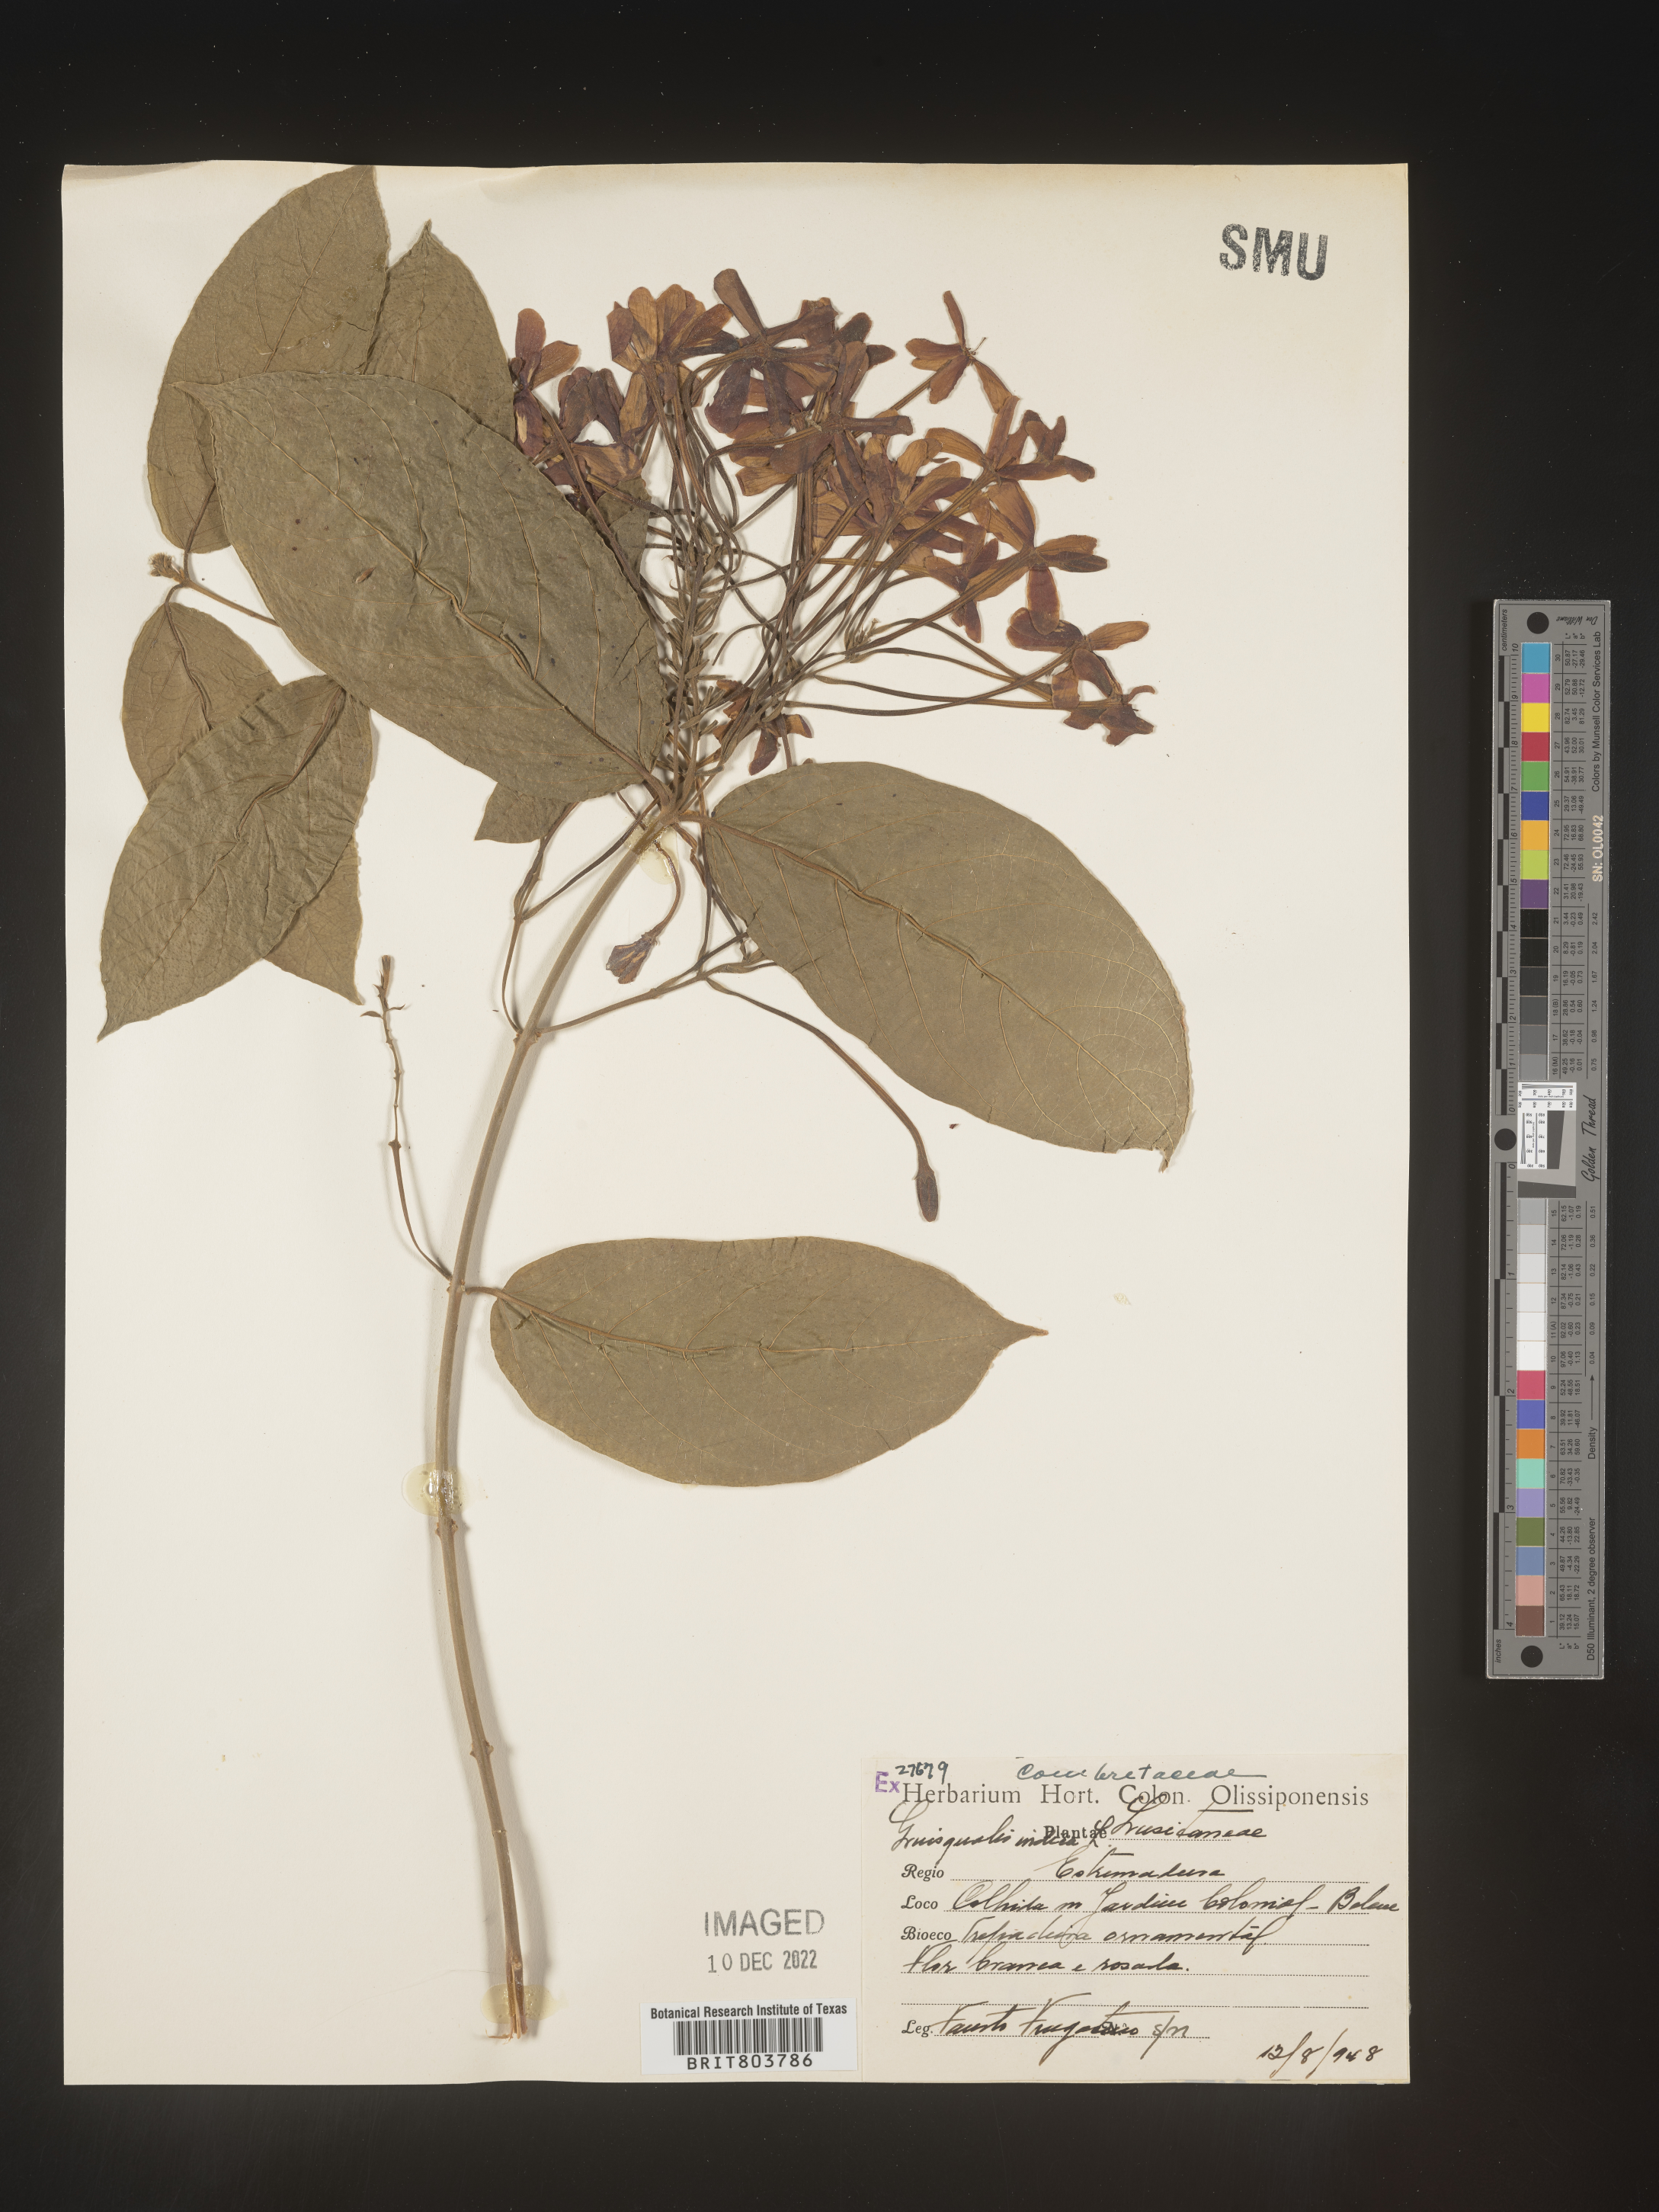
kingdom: Plantae
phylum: Tracheophyta
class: Magnoliopsida
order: Myrtales
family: Combretaceae
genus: Combretum
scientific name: Combretum
